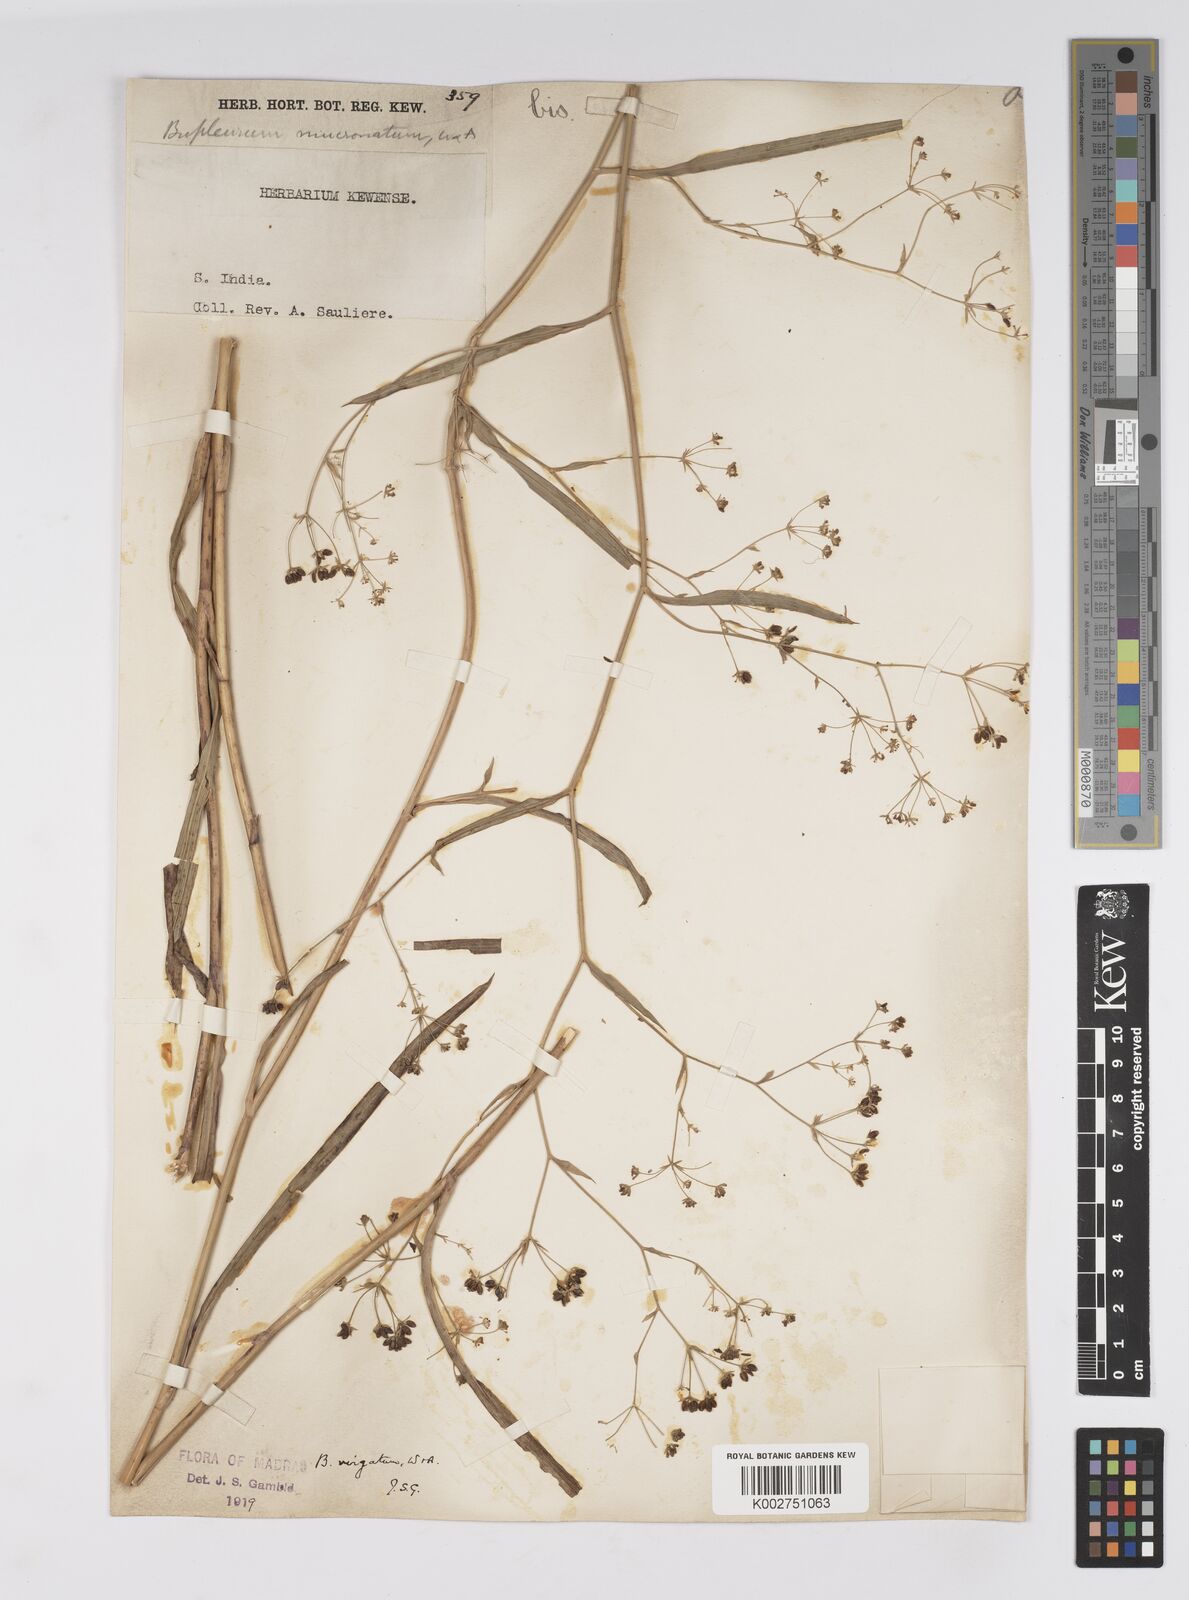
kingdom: Plantae
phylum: Tracheophyta
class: Magnoliopsida
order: Apiales
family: Apiaceae
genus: Bupleurum
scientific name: Bupleurum
